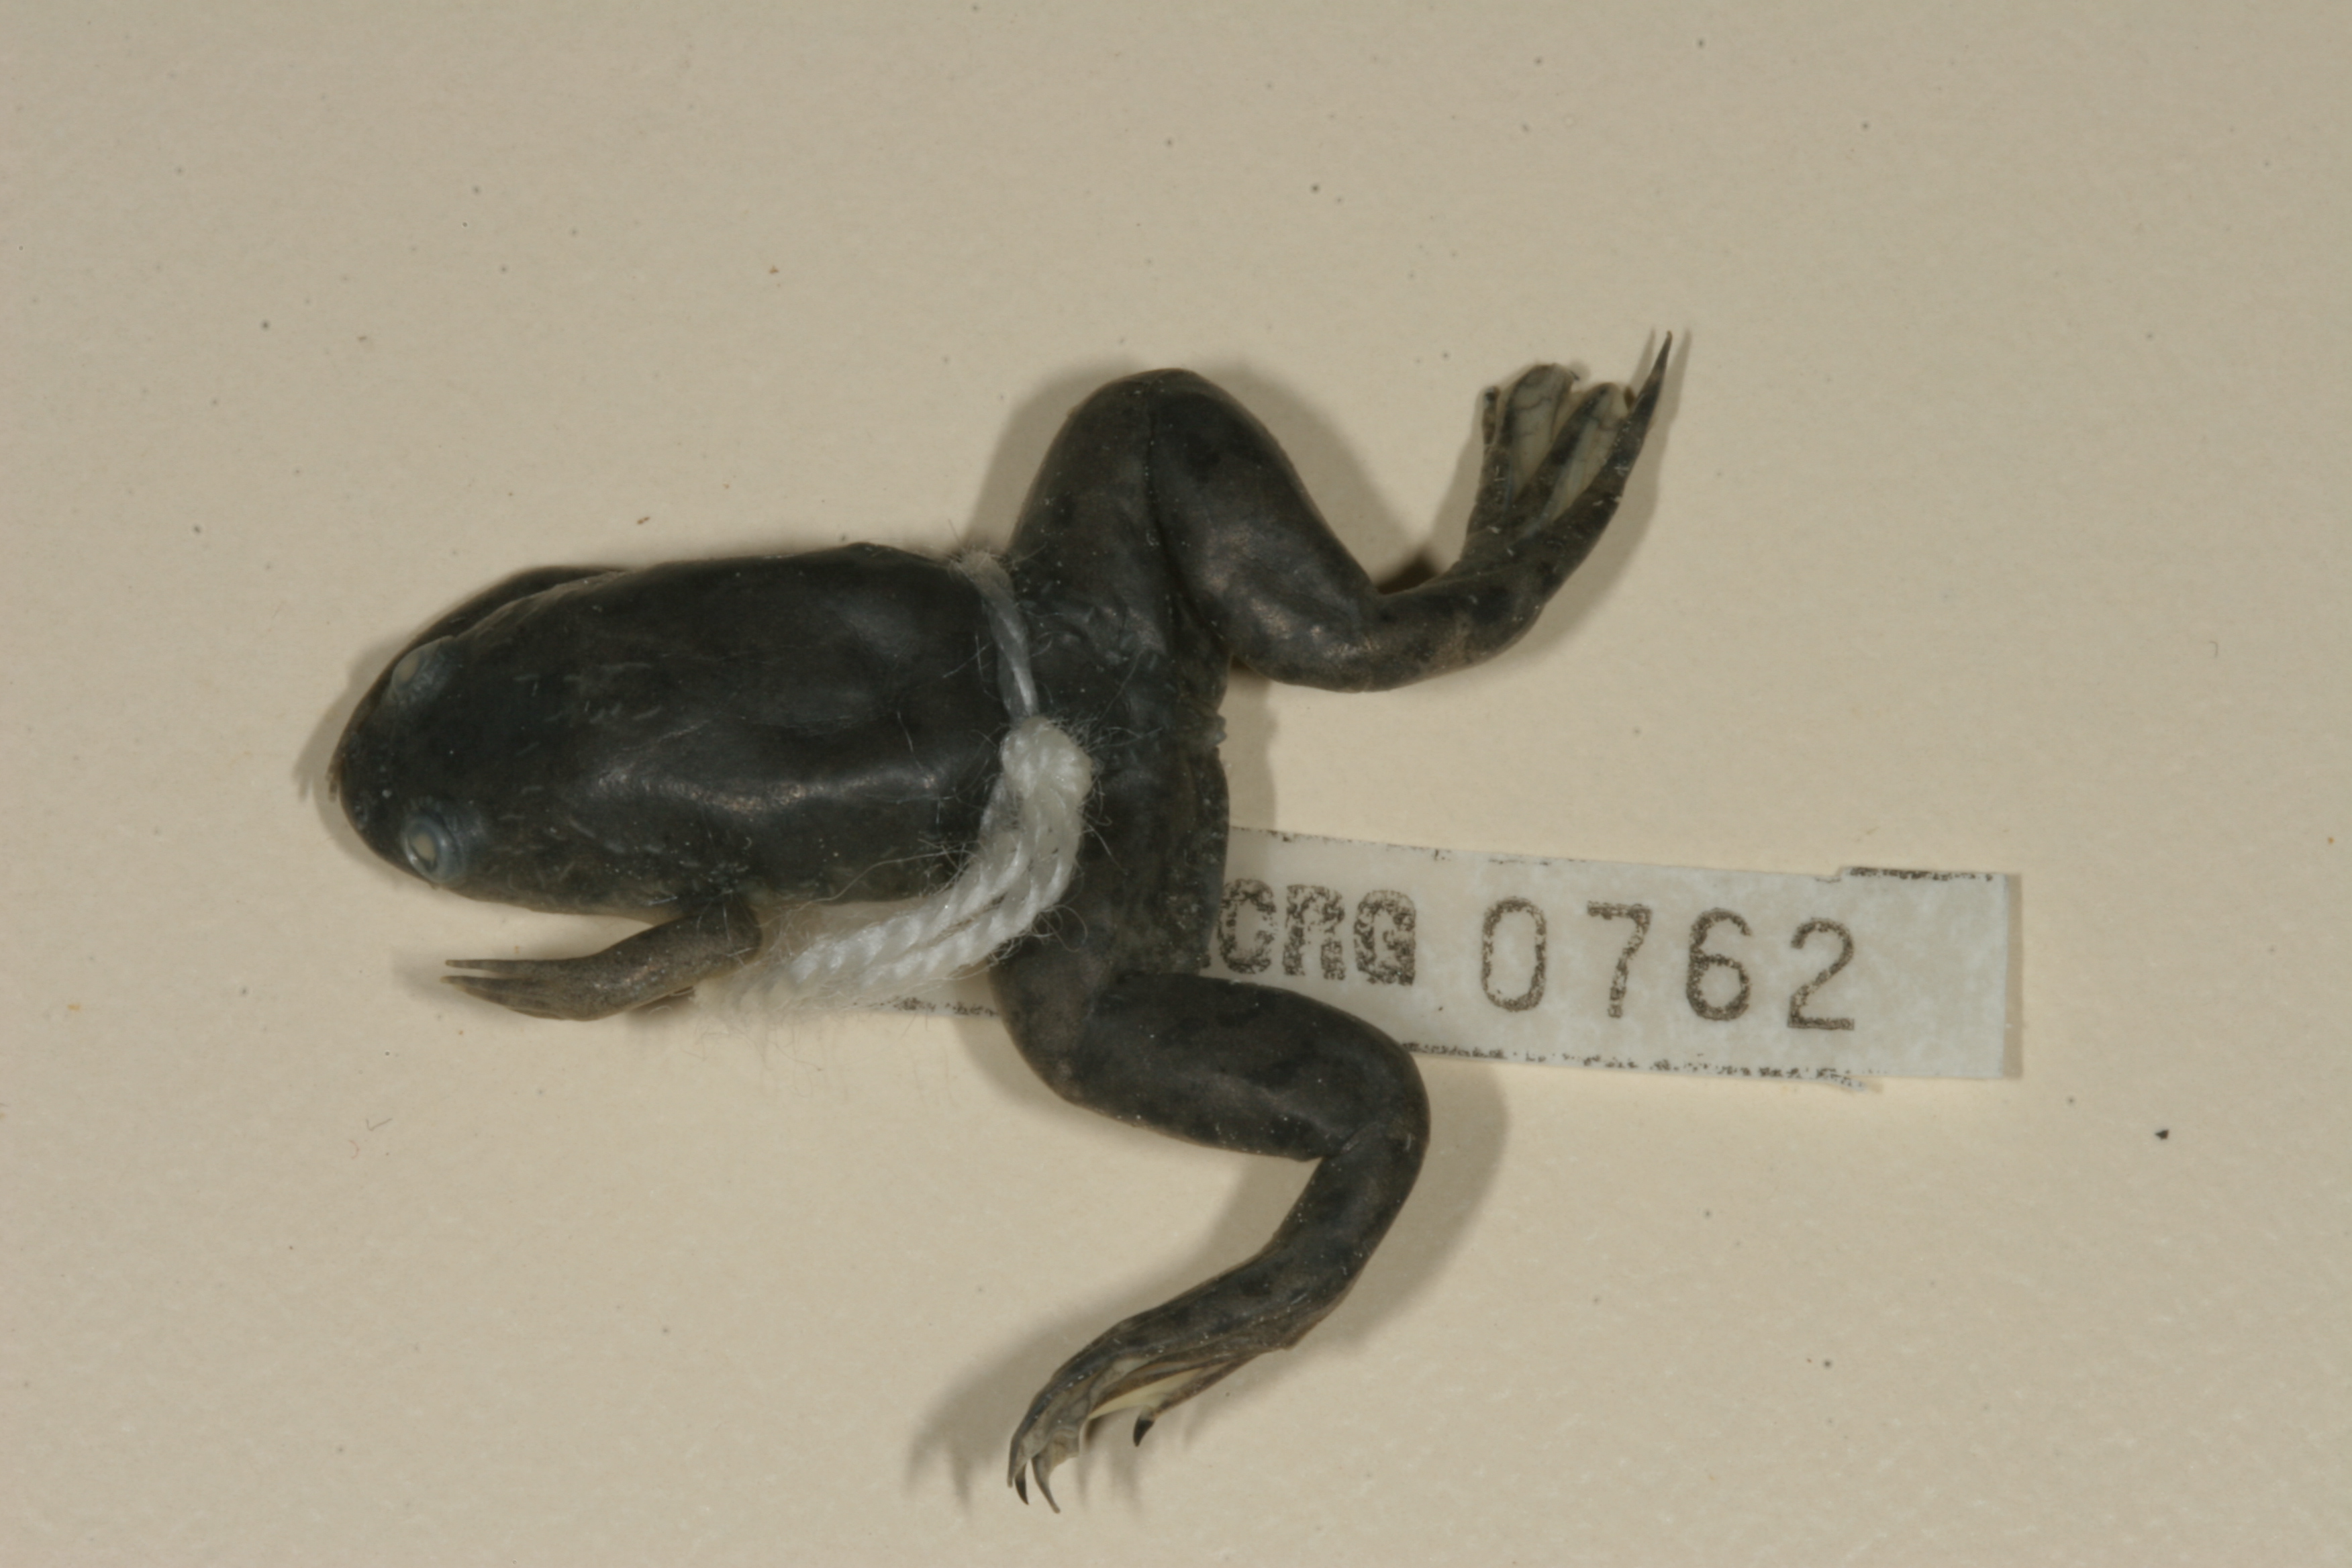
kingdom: Animalia
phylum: Chordata
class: Amphibia
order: Anura
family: Pipidae
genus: Xenopus
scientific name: Xenopus laevis
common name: African clawed frog
